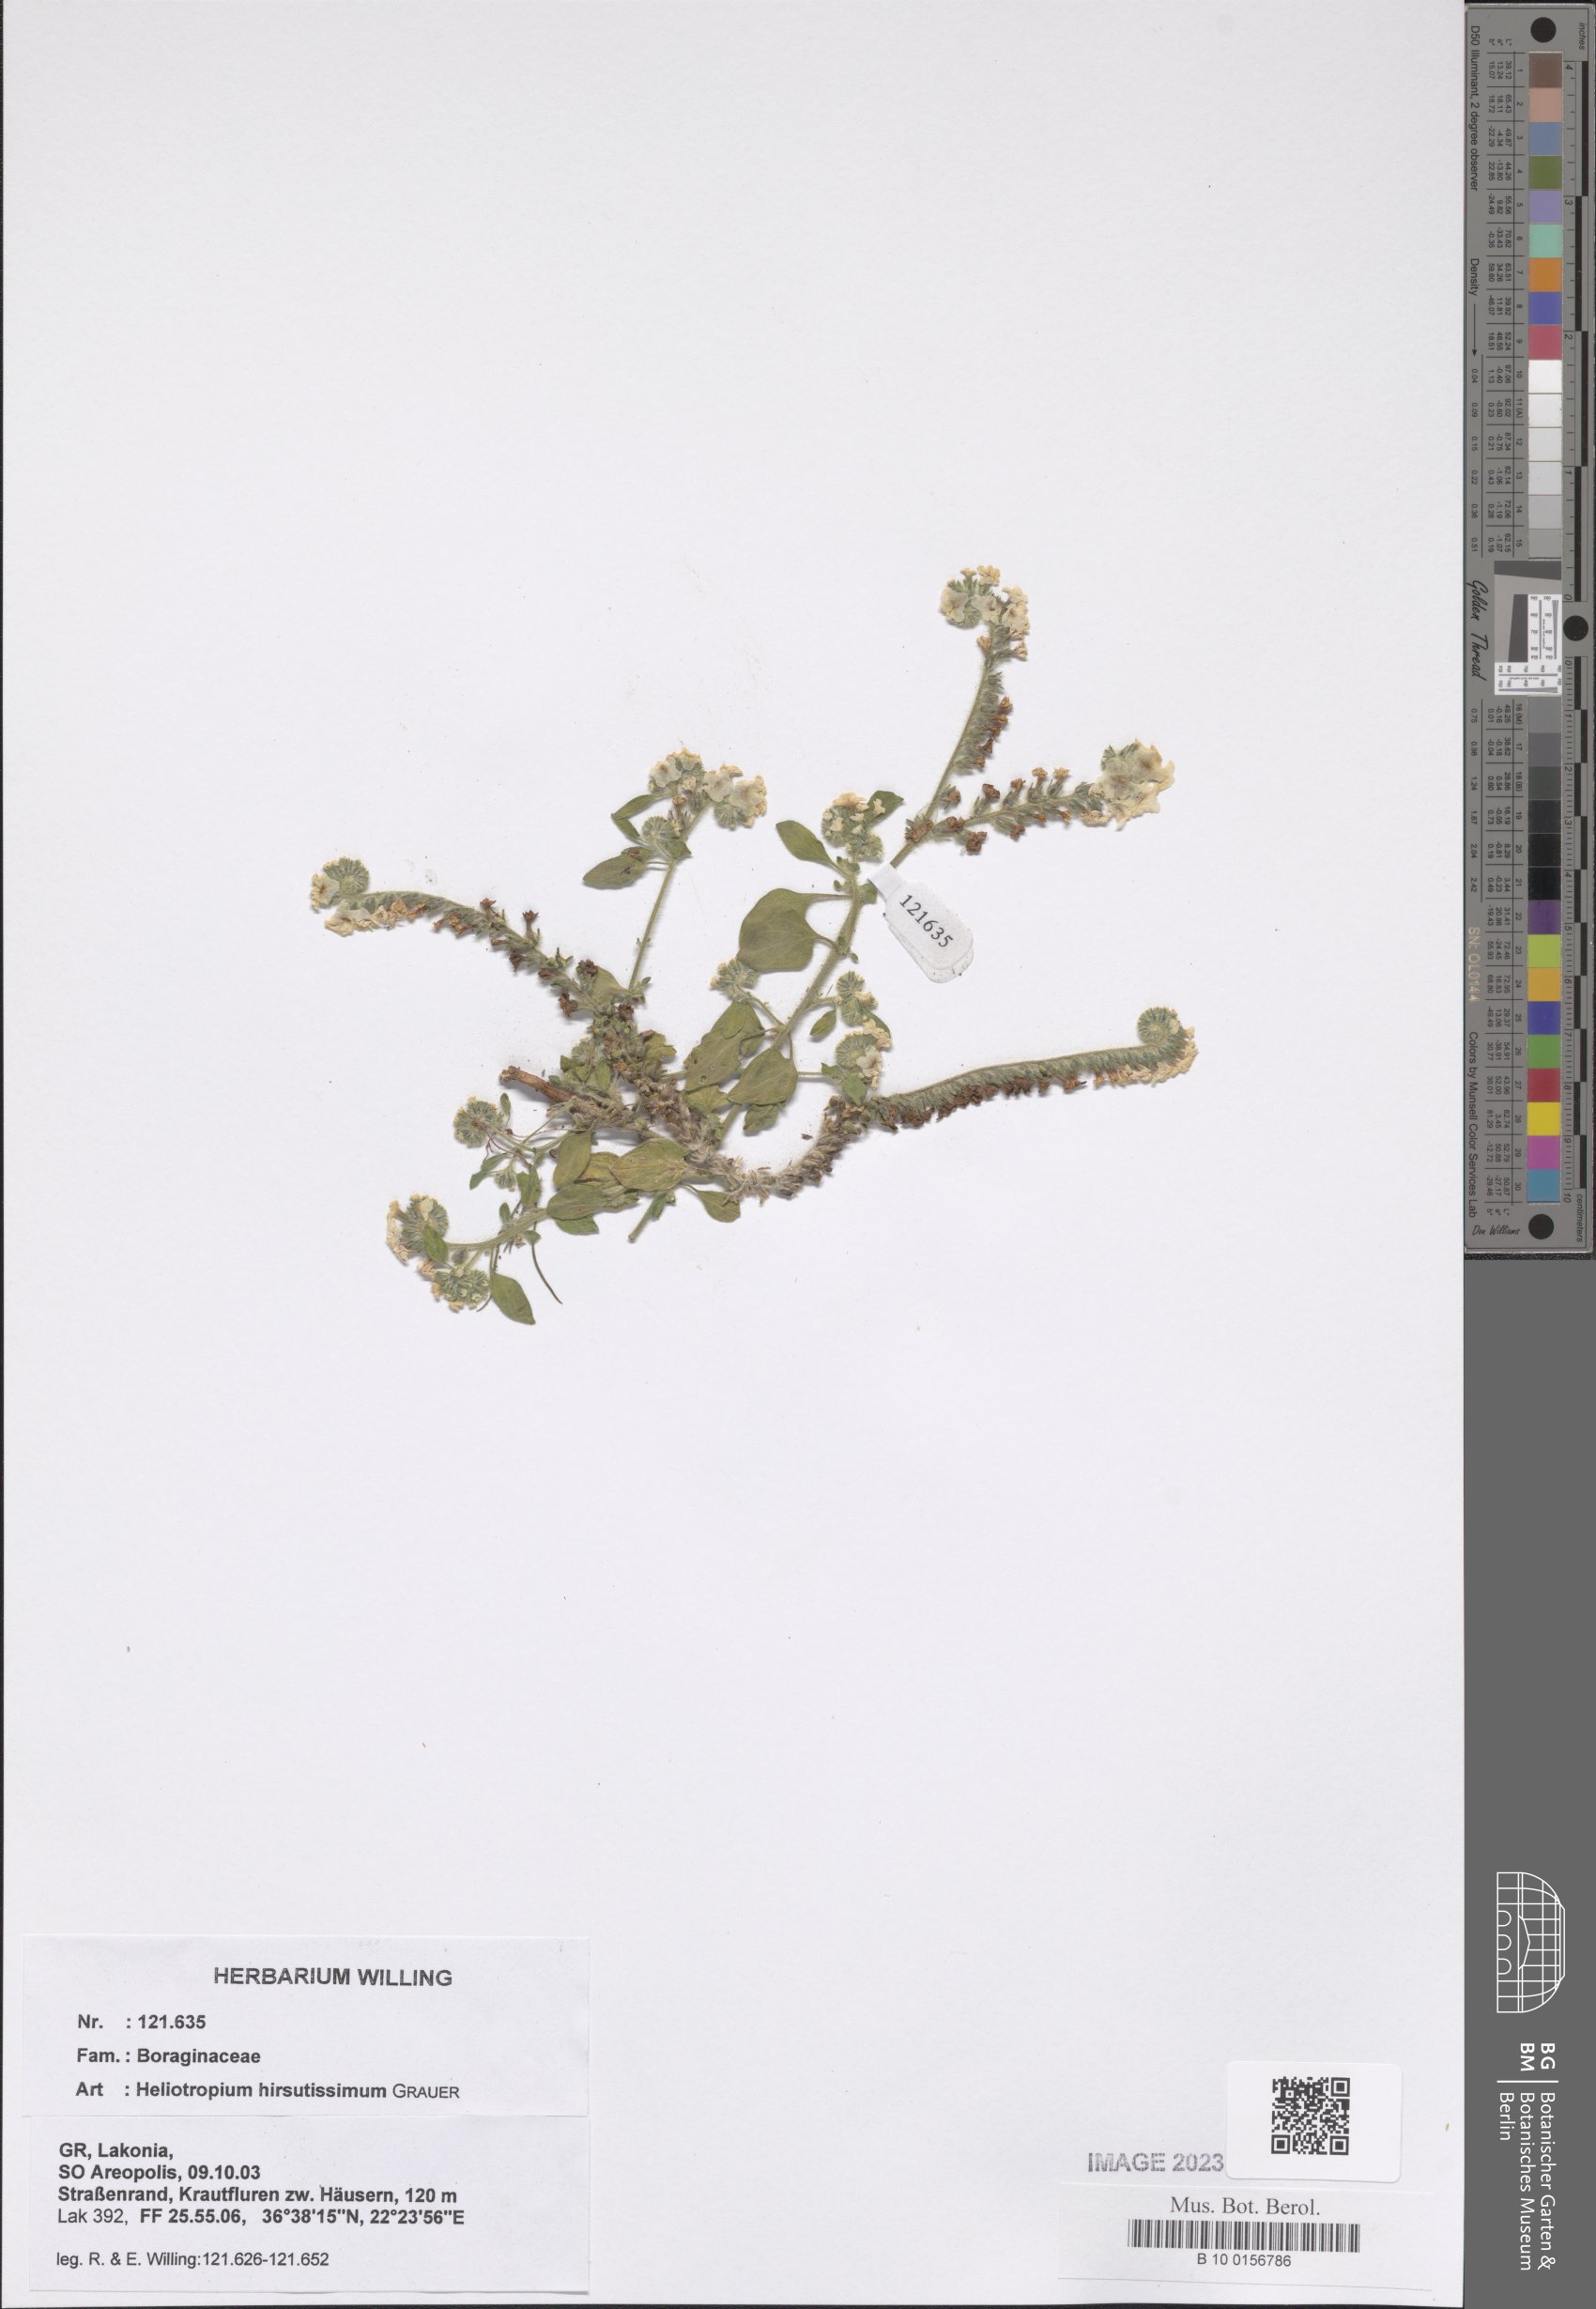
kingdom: Plantae
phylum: Tracheophyta
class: Magnoliopsida
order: Boraginales
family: Heliotropiaceae
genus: Heliotropium
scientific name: Heliotropium hirsutissimum
